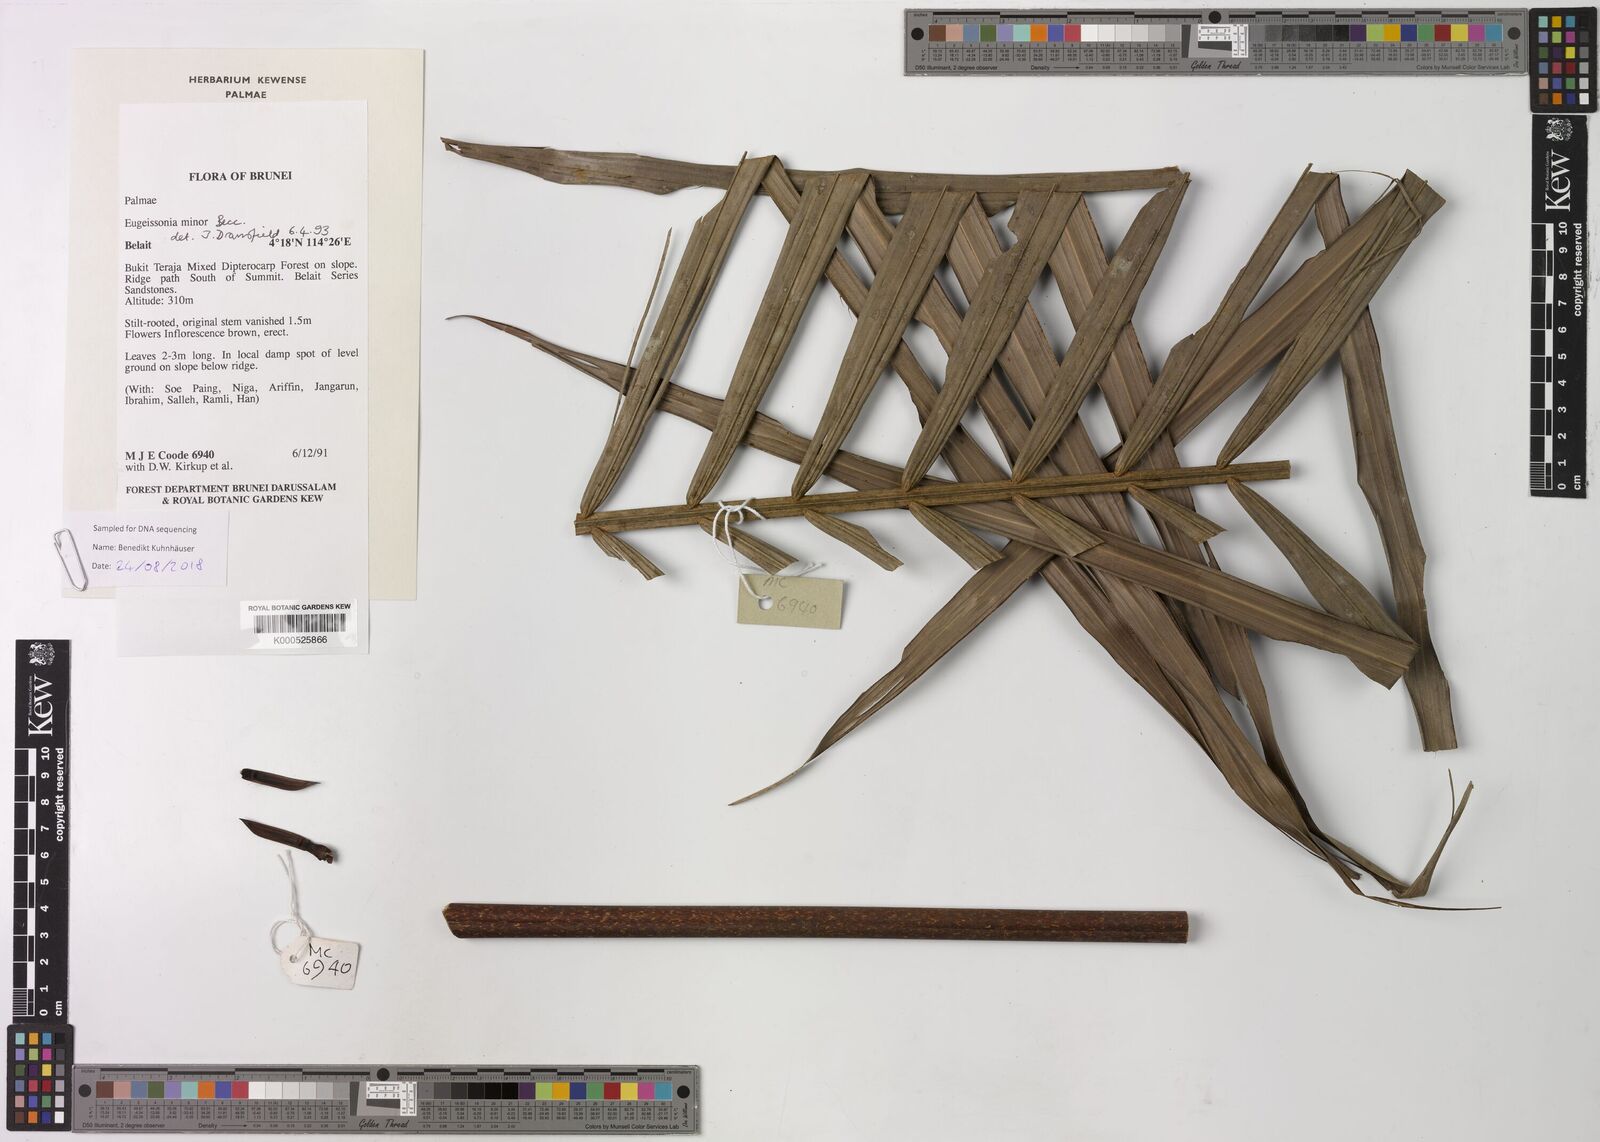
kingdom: Plantae
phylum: Tracheophyta
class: Liliopsida
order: Arecales
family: Arecaceae
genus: Eugeissona
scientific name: Eugeissona minor
